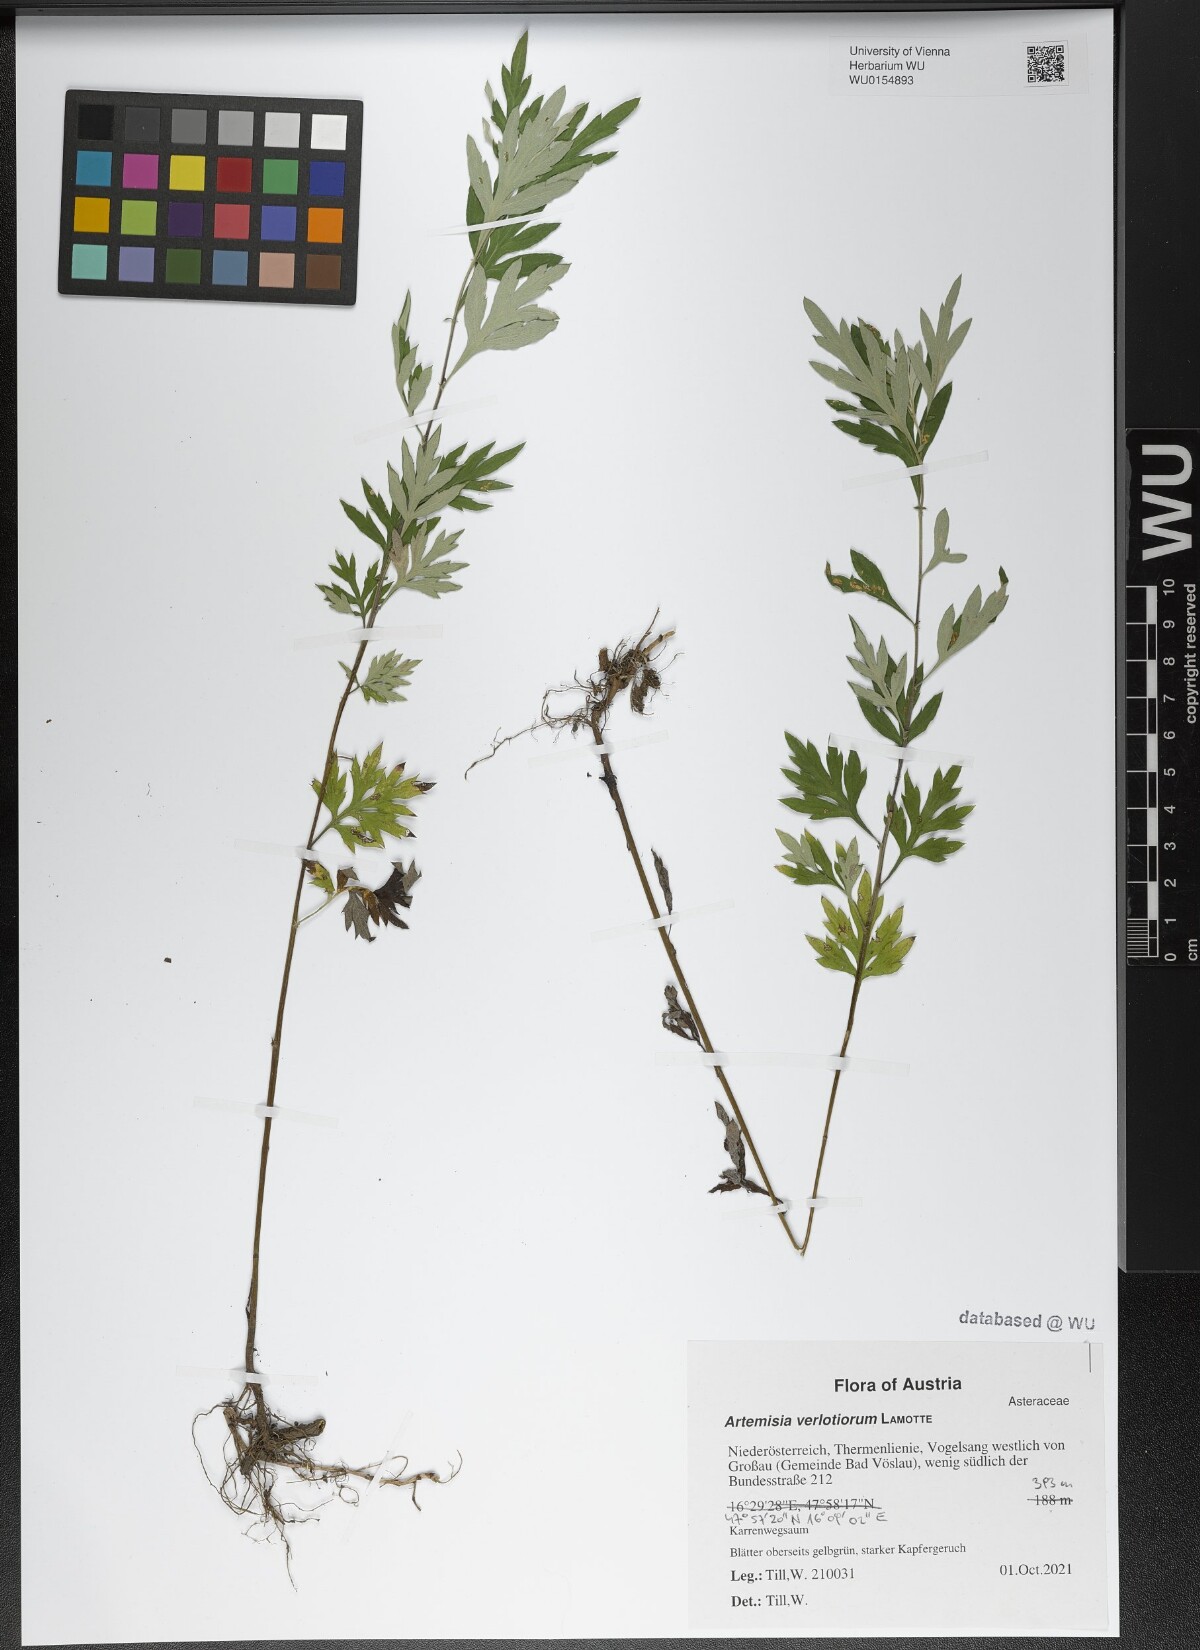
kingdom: Plantae
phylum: Tracheophyta
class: Magnoliopsida
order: Asterales
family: Asteraceae
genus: Artemisia
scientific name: Artemisia verlotiorum
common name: Chinese mugwort
